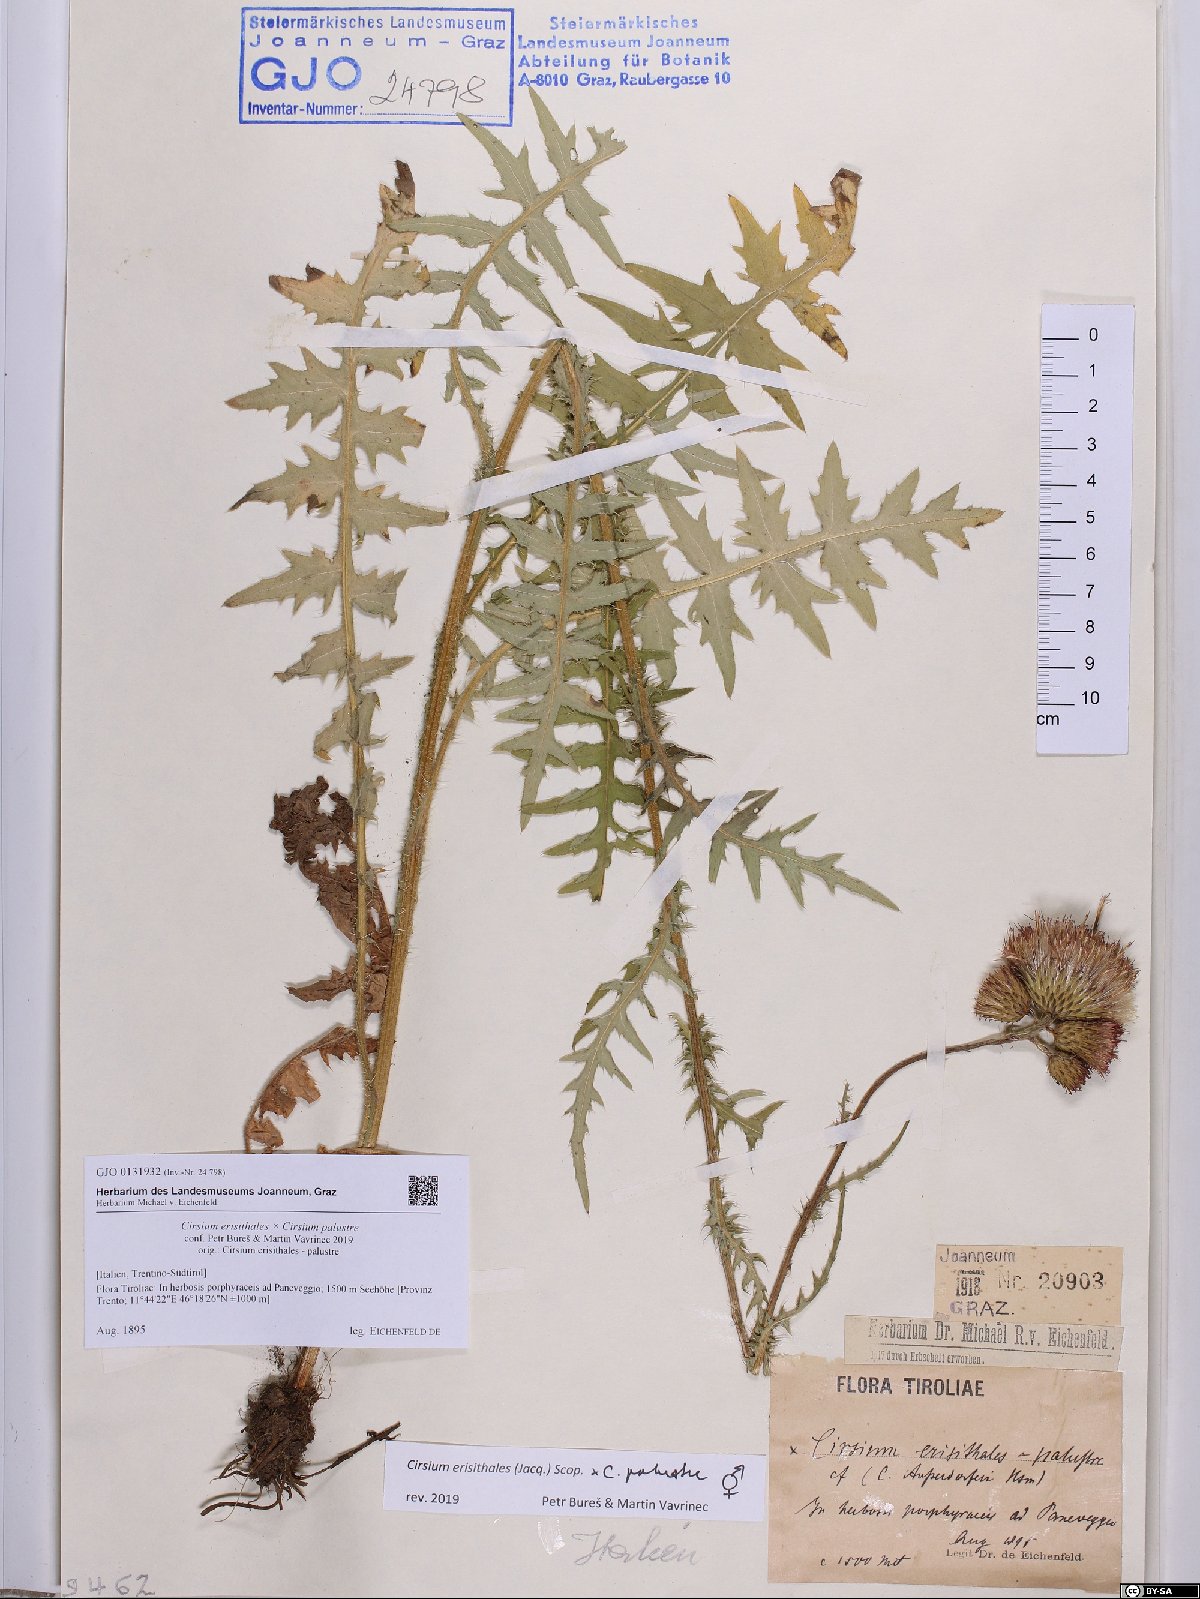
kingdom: Plantae
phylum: Tracheophyta
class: Magnoliopsida
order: Asterales
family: Asteraceae
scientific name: Asteraceae
